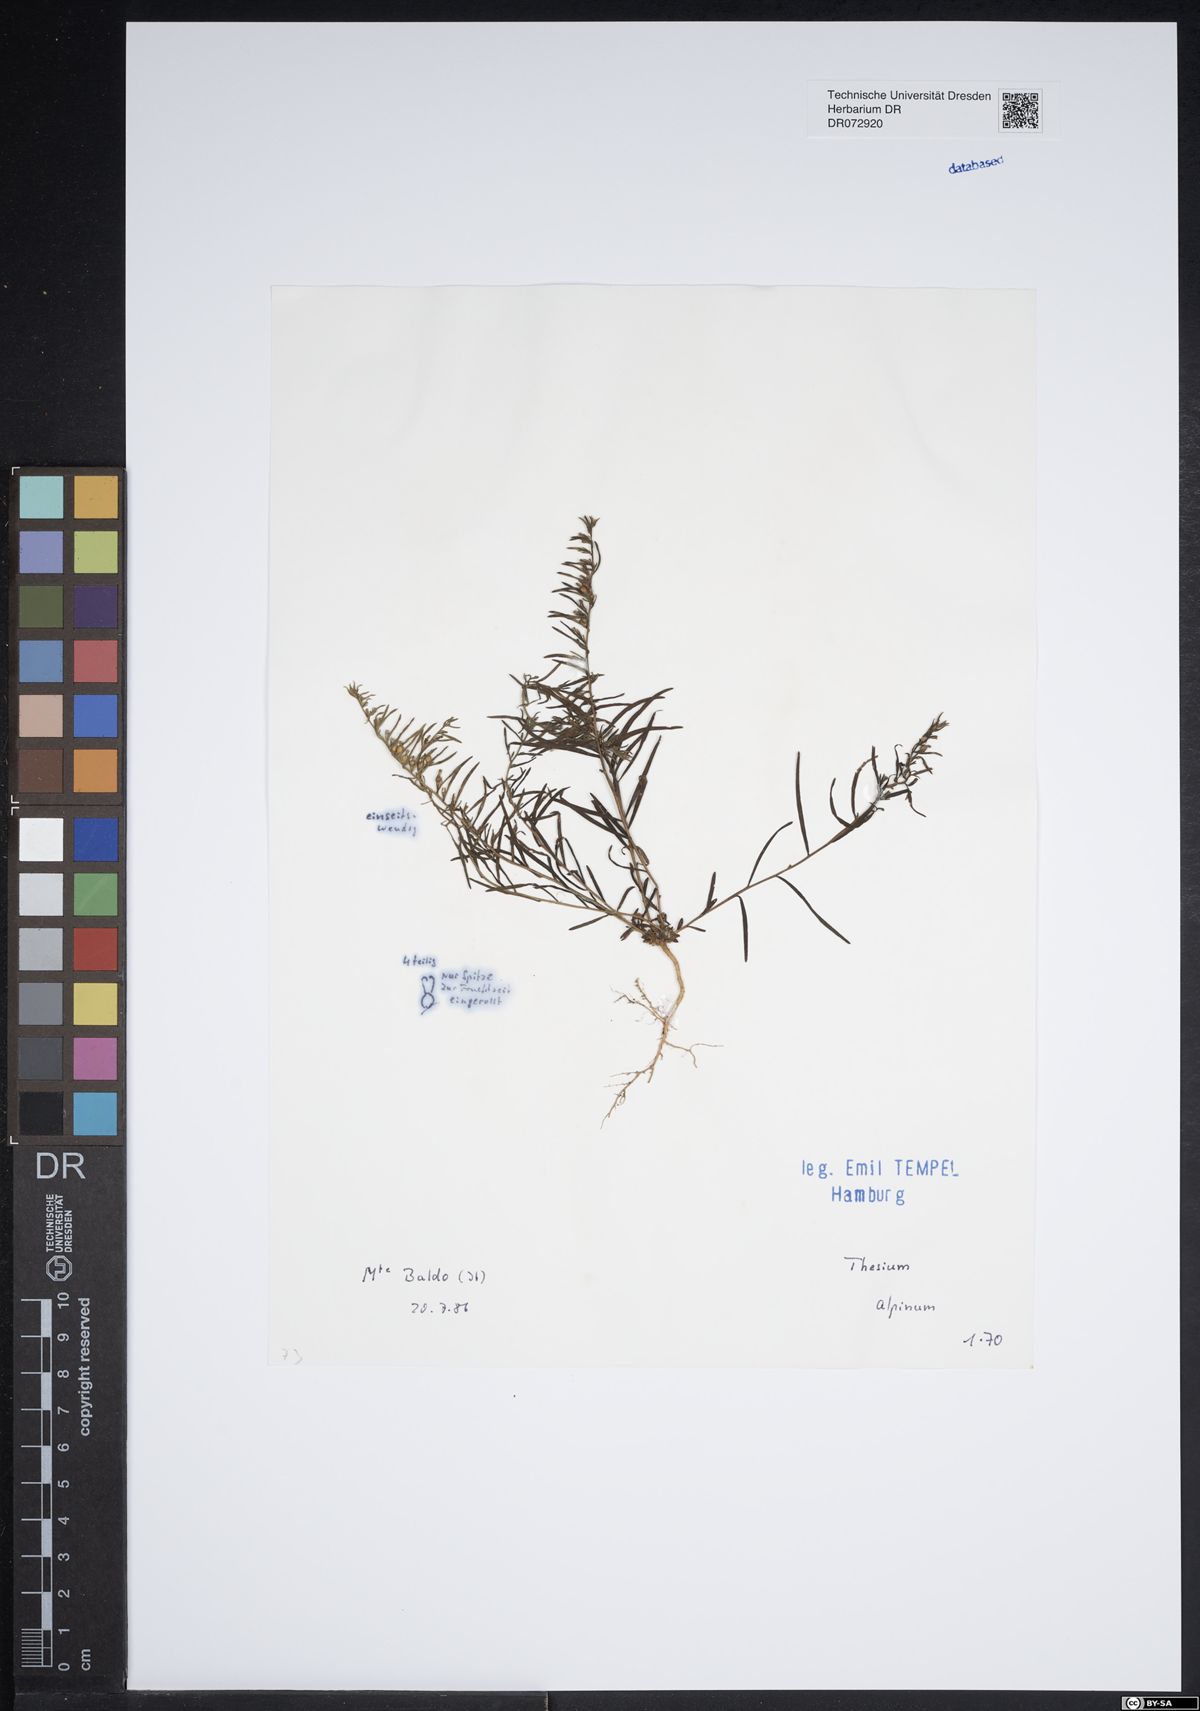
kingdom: Plantae
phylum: Tracheophyta
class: Magnoliopsida
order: Santalales
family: Thesiaceae
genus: Thesium
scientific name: Thesium alpinum
